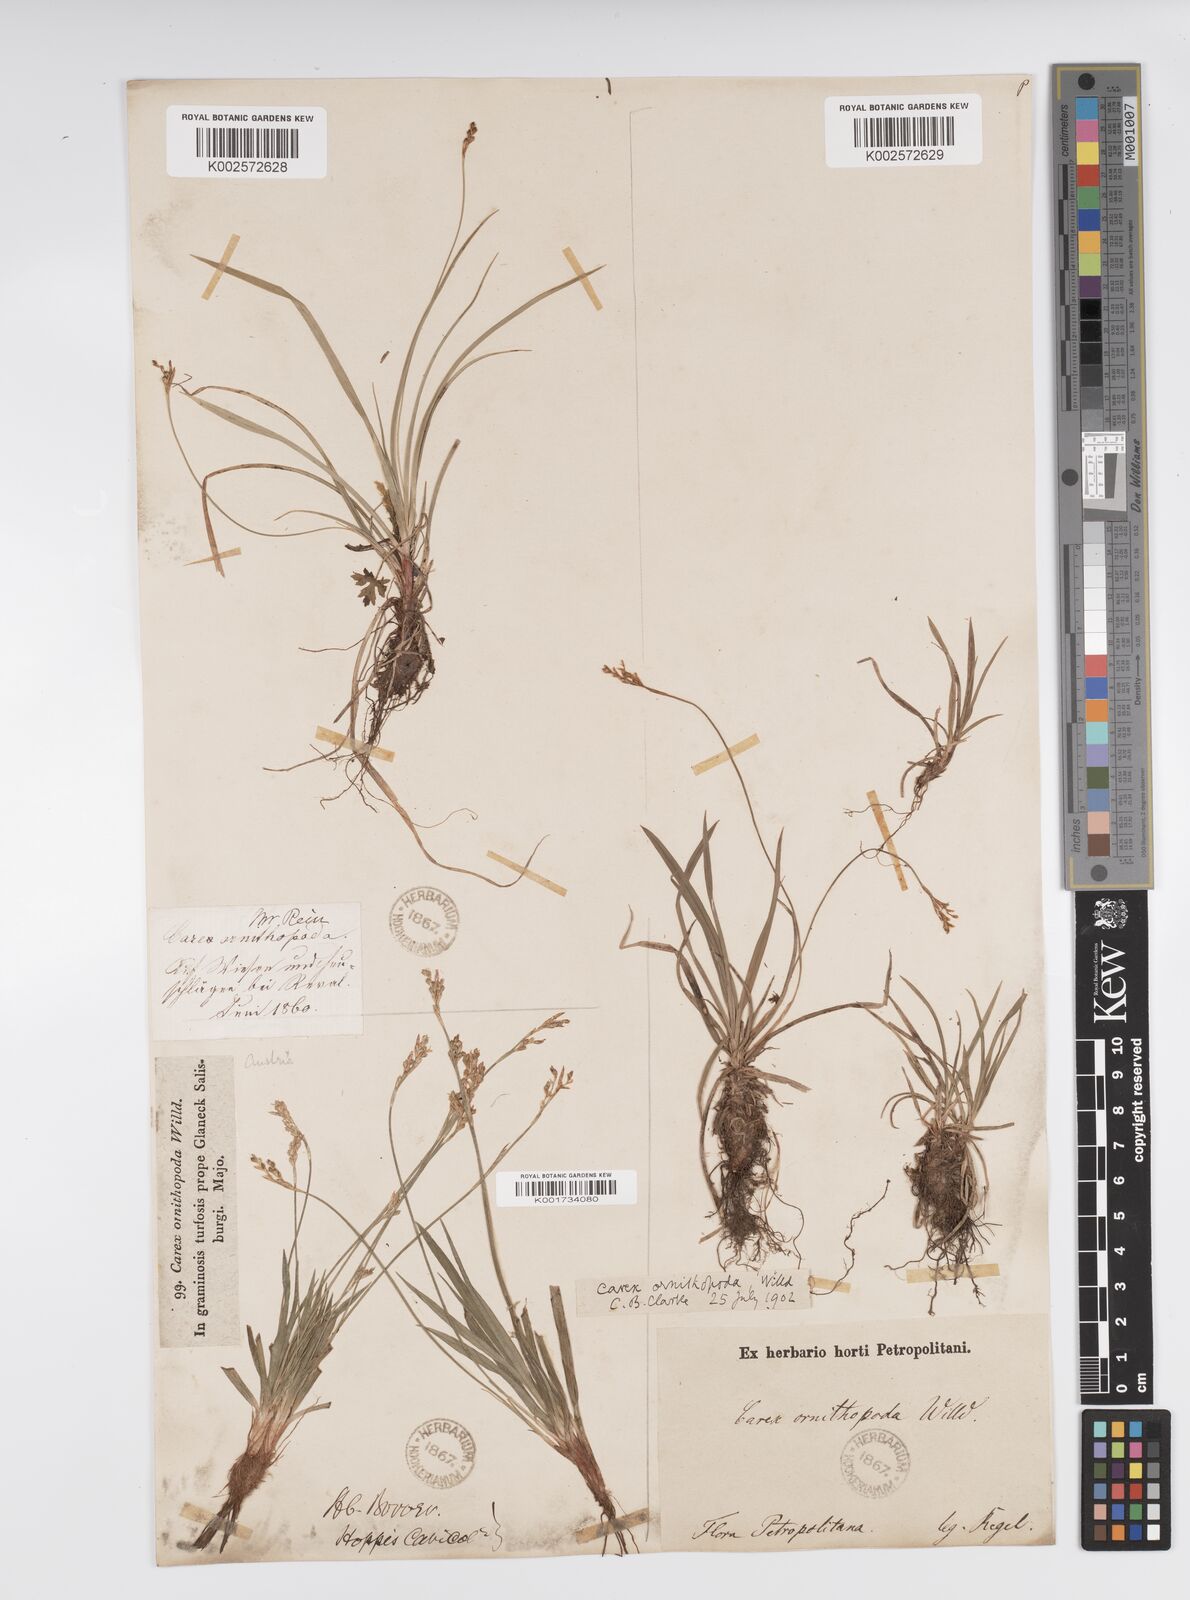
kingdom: Plantae
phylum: Tracheophyta
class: Liliopsida
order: Poales
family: Cyperaceae
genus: Carex
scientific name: Carex ornithopoda
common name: Bird's-foot sedge
